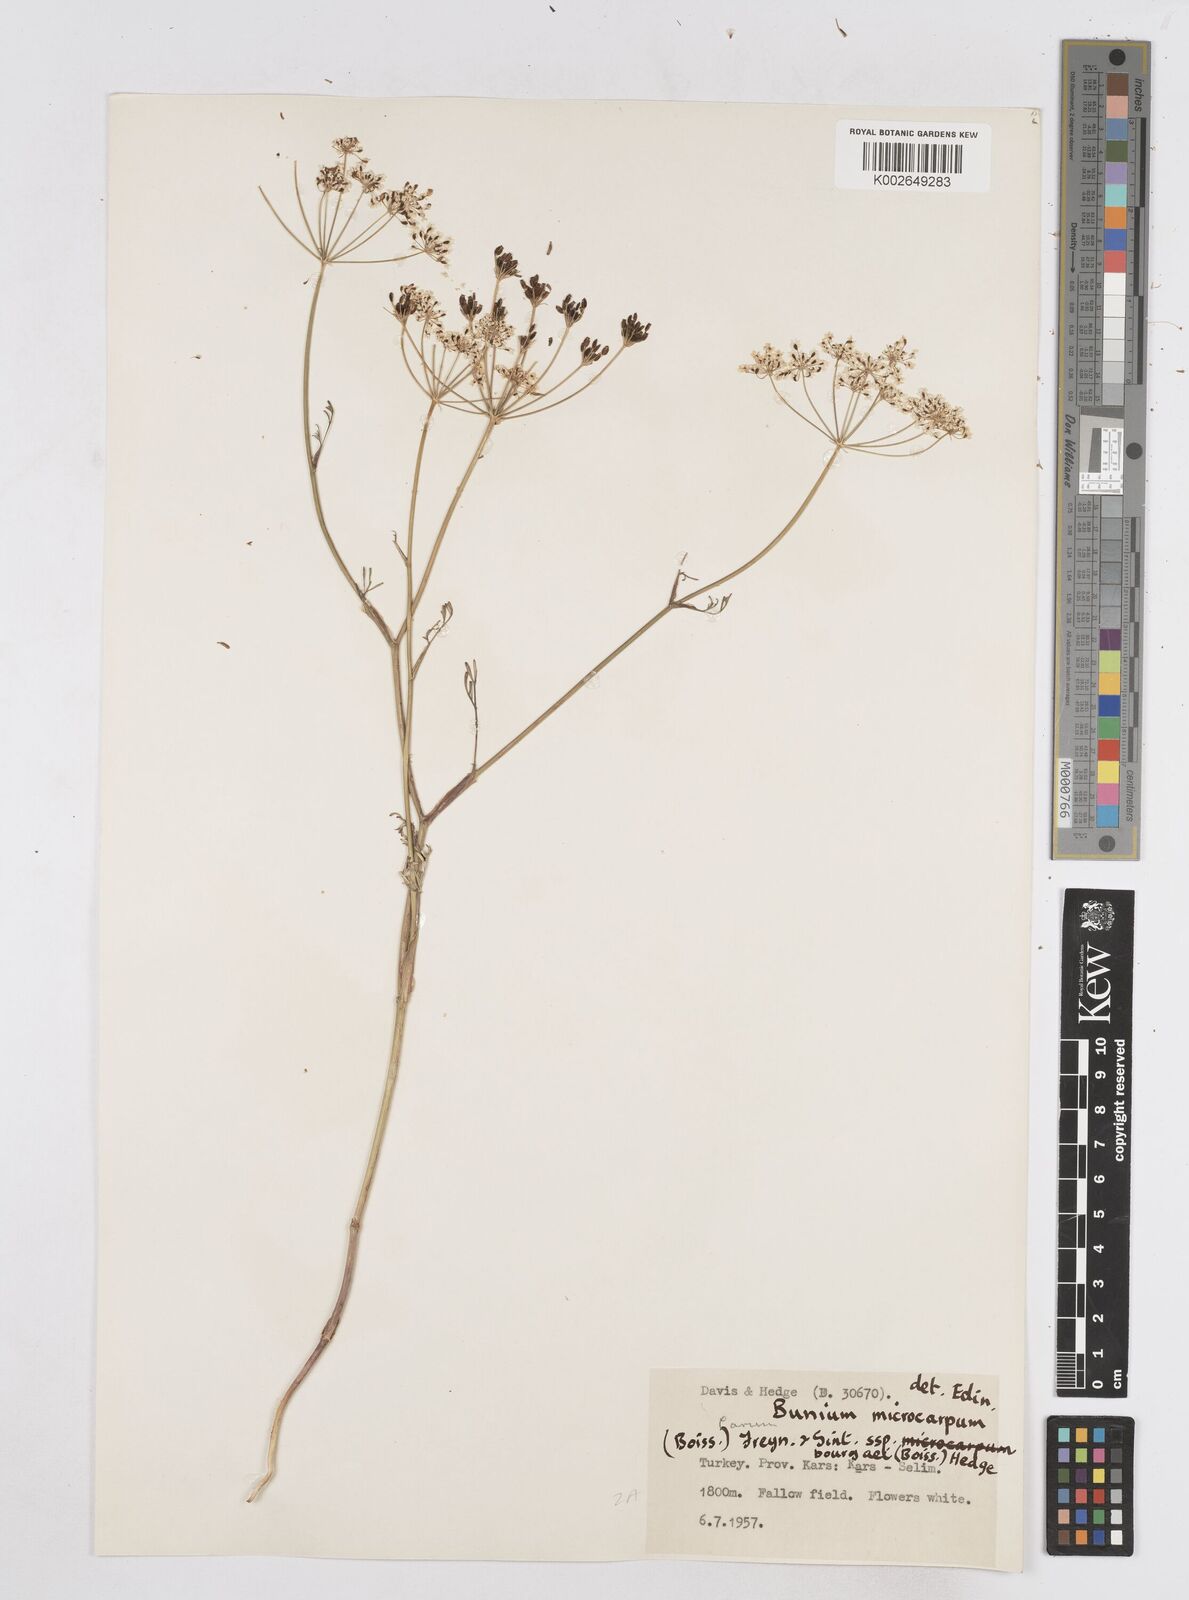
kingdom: Plantae
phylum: Tracheophyta
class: Magnoliopsida
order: Apiales
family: Apiaceae
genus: Bunium
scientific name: Bunium bourgaei
